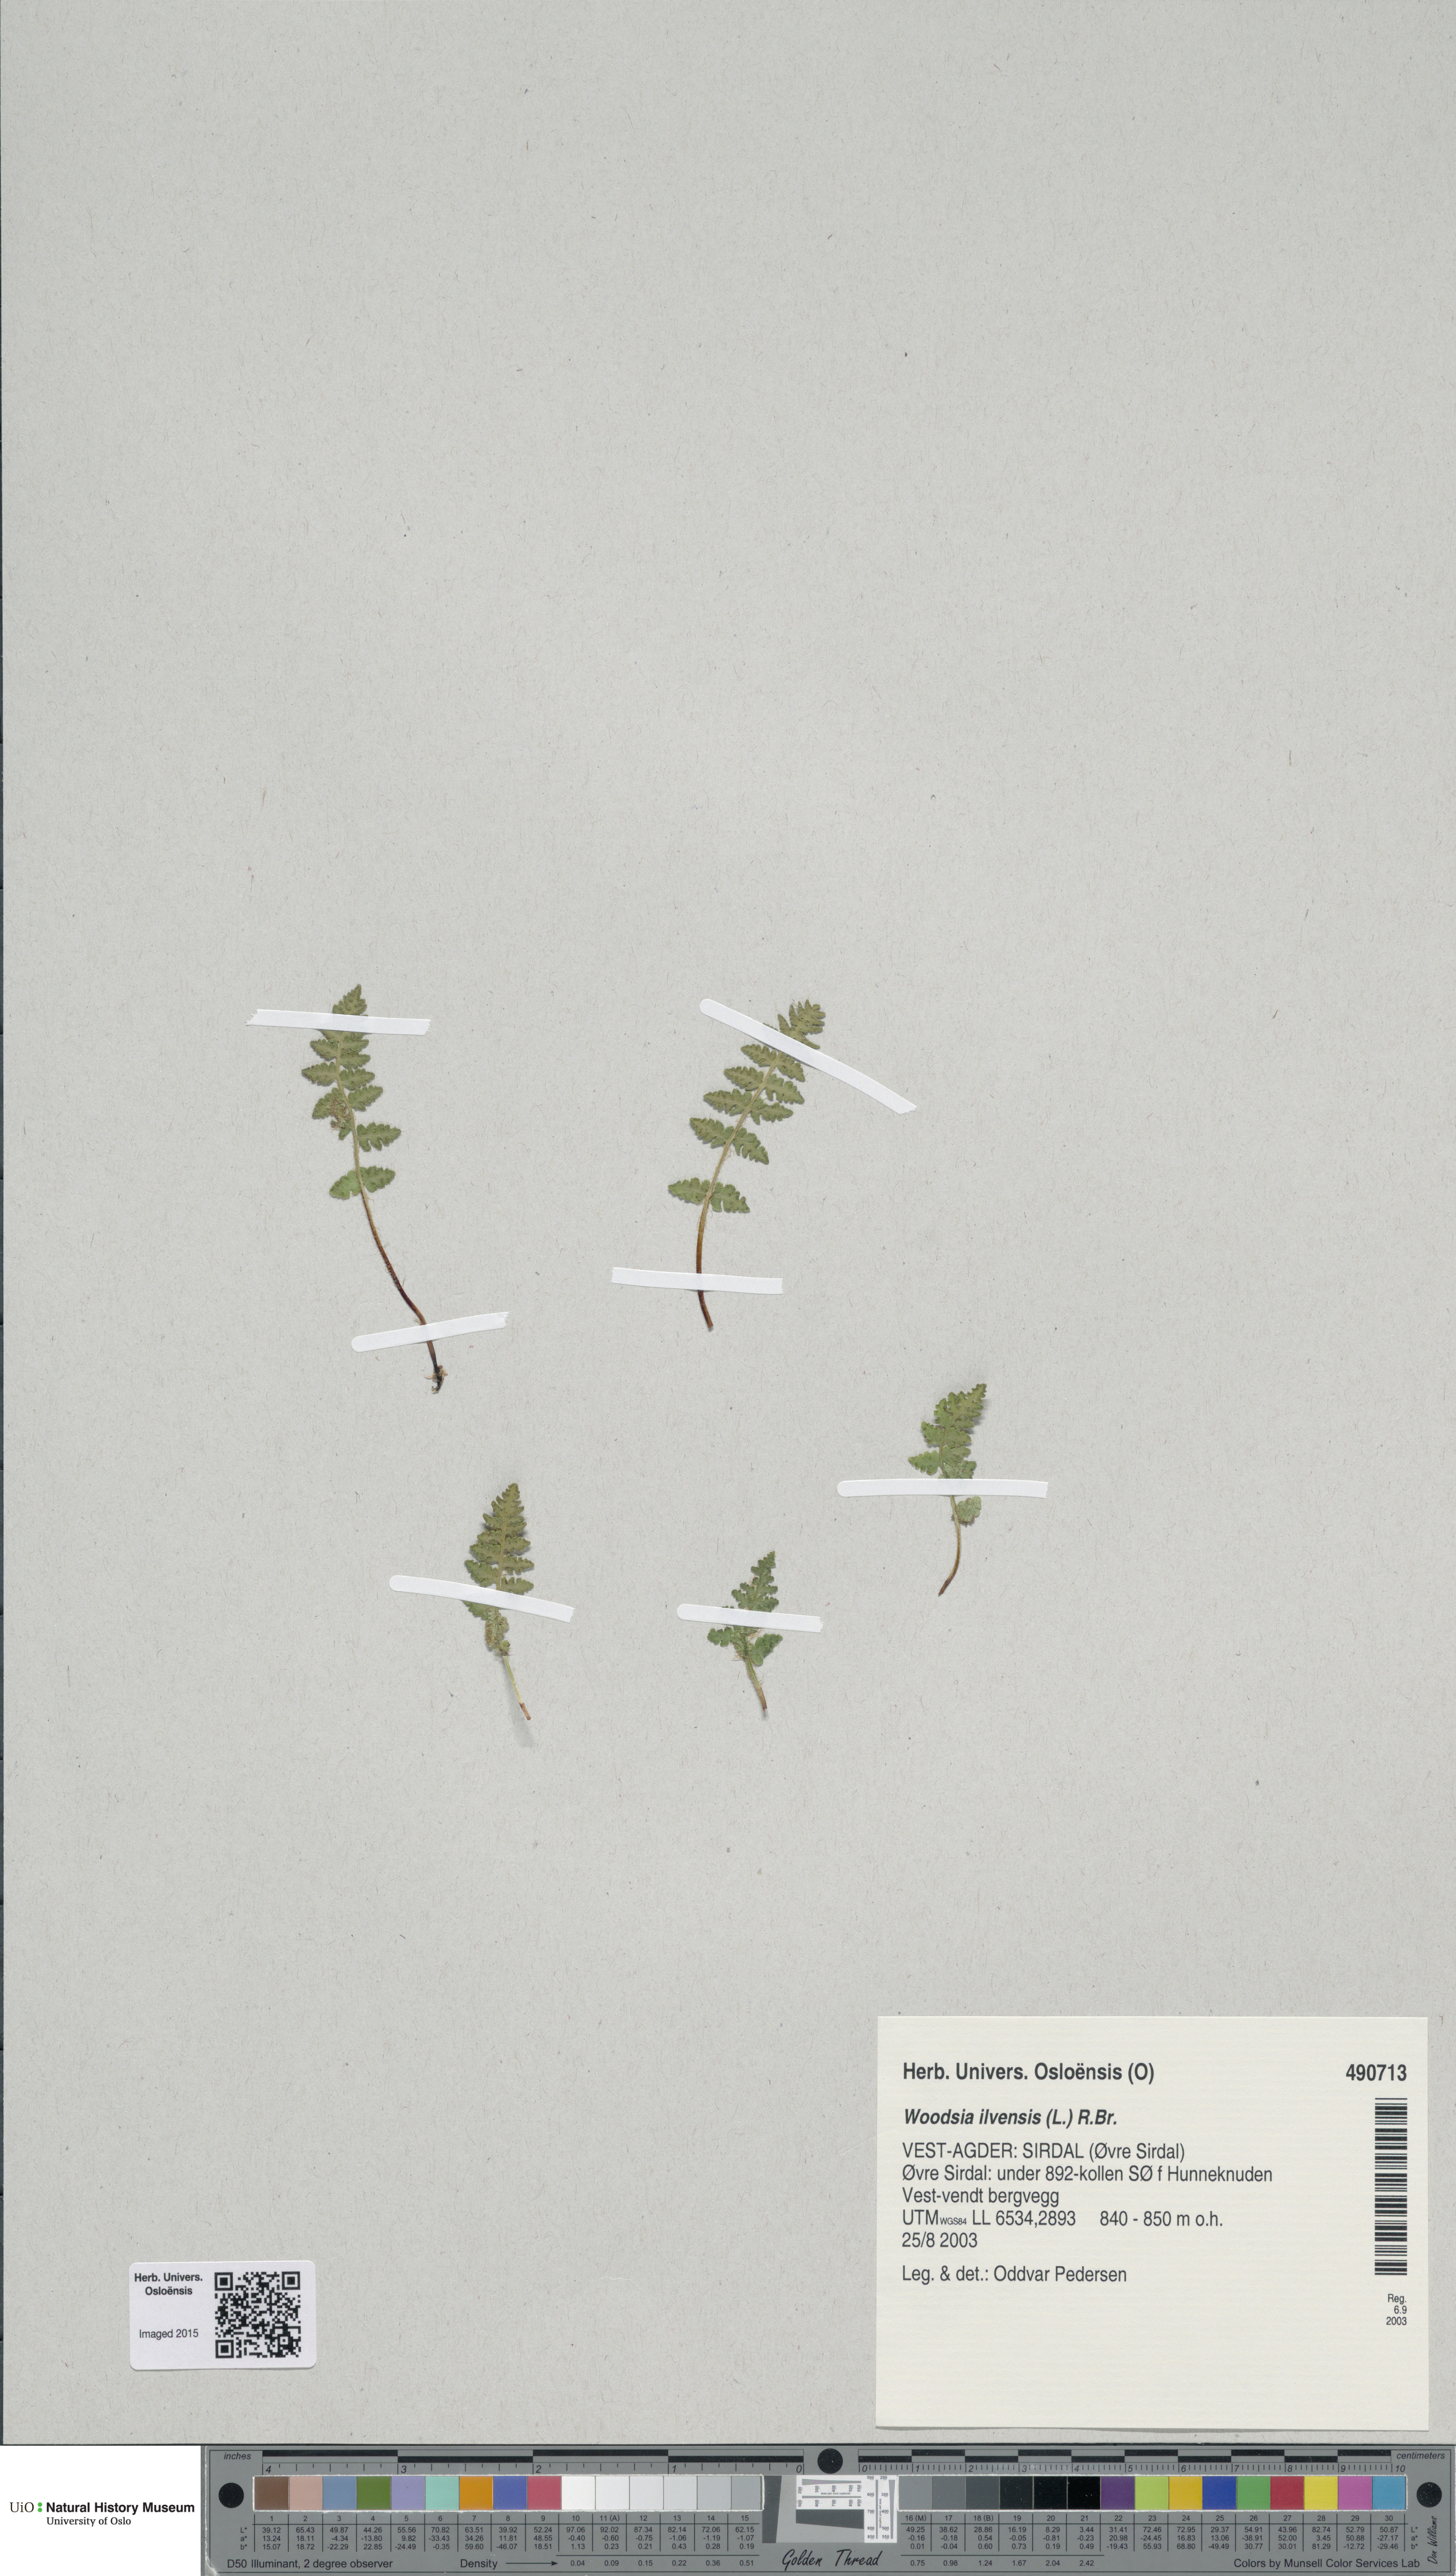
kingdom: Plantae
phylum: Tracheophyta
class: Polypodiopsida
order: Polypodiales
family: Woodsiaceae
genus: Woodsia
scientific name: Woodsia ilvensis
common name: Fragrant woodsia
